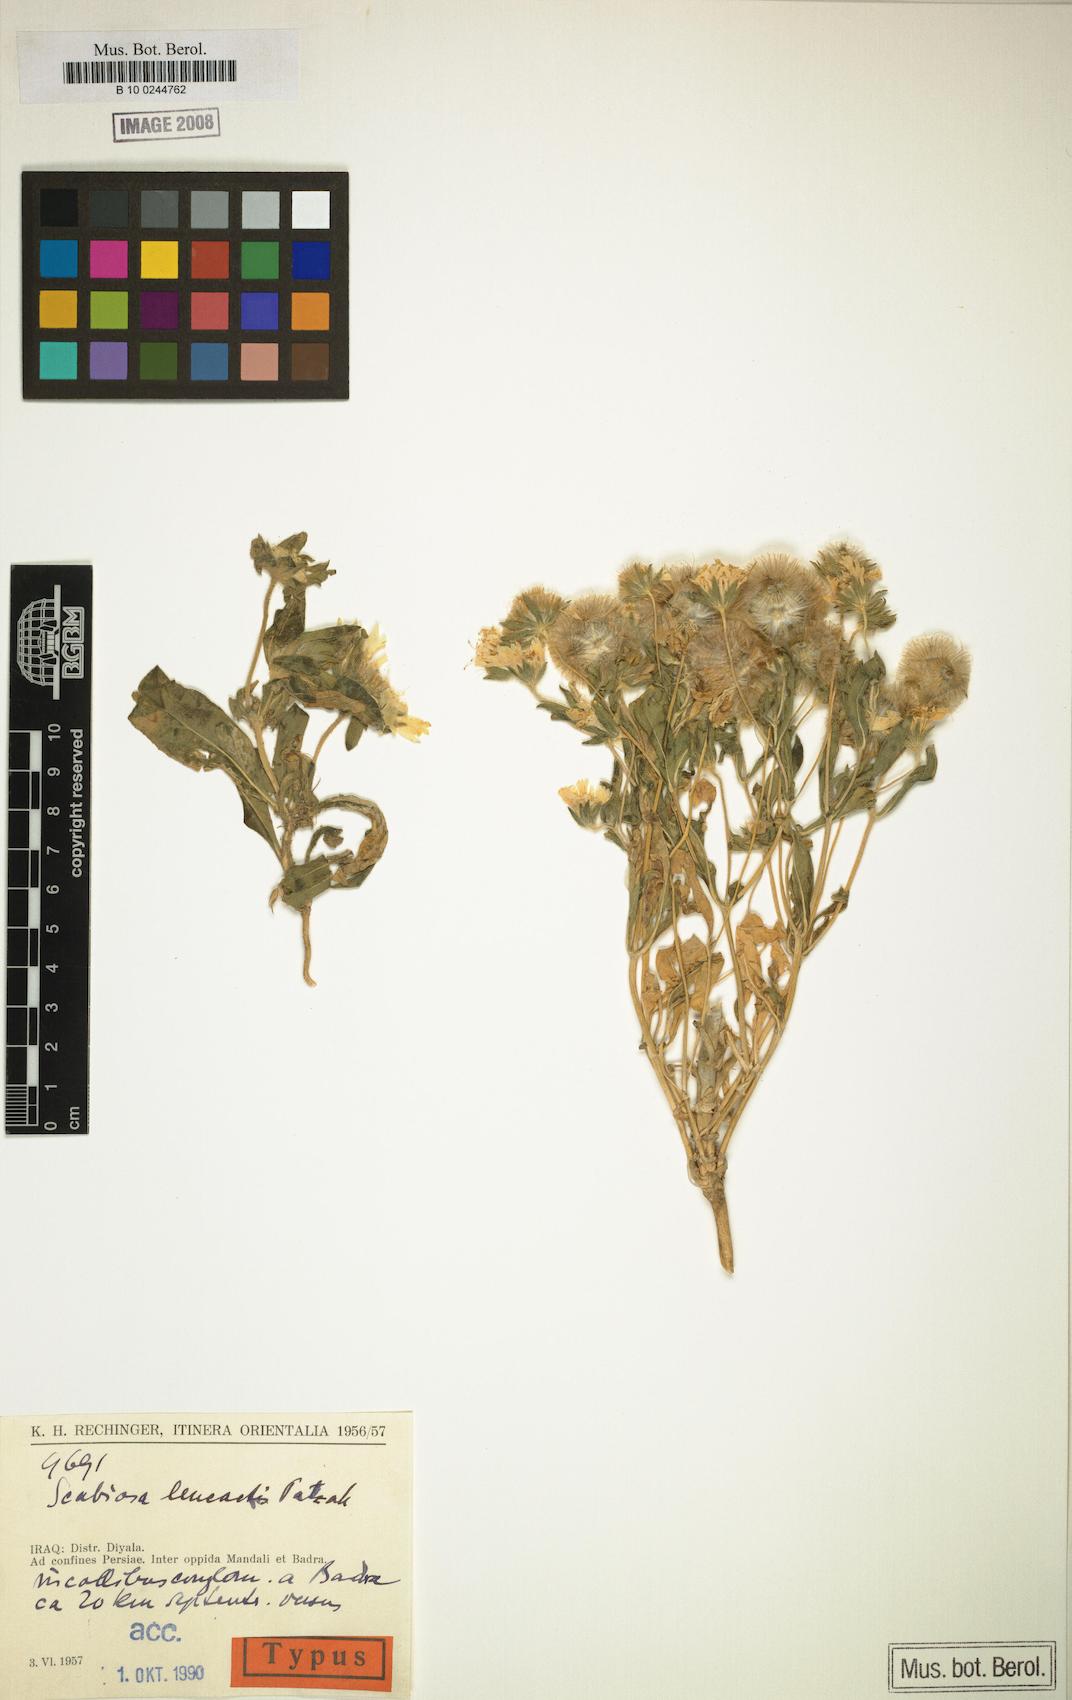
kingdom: Plantae
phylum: Tracheophyta
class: Magnoliopsida
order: Dipsacales
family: Caprifoliaceae
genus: Lomelosia
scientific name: Lomelosia leucactis
